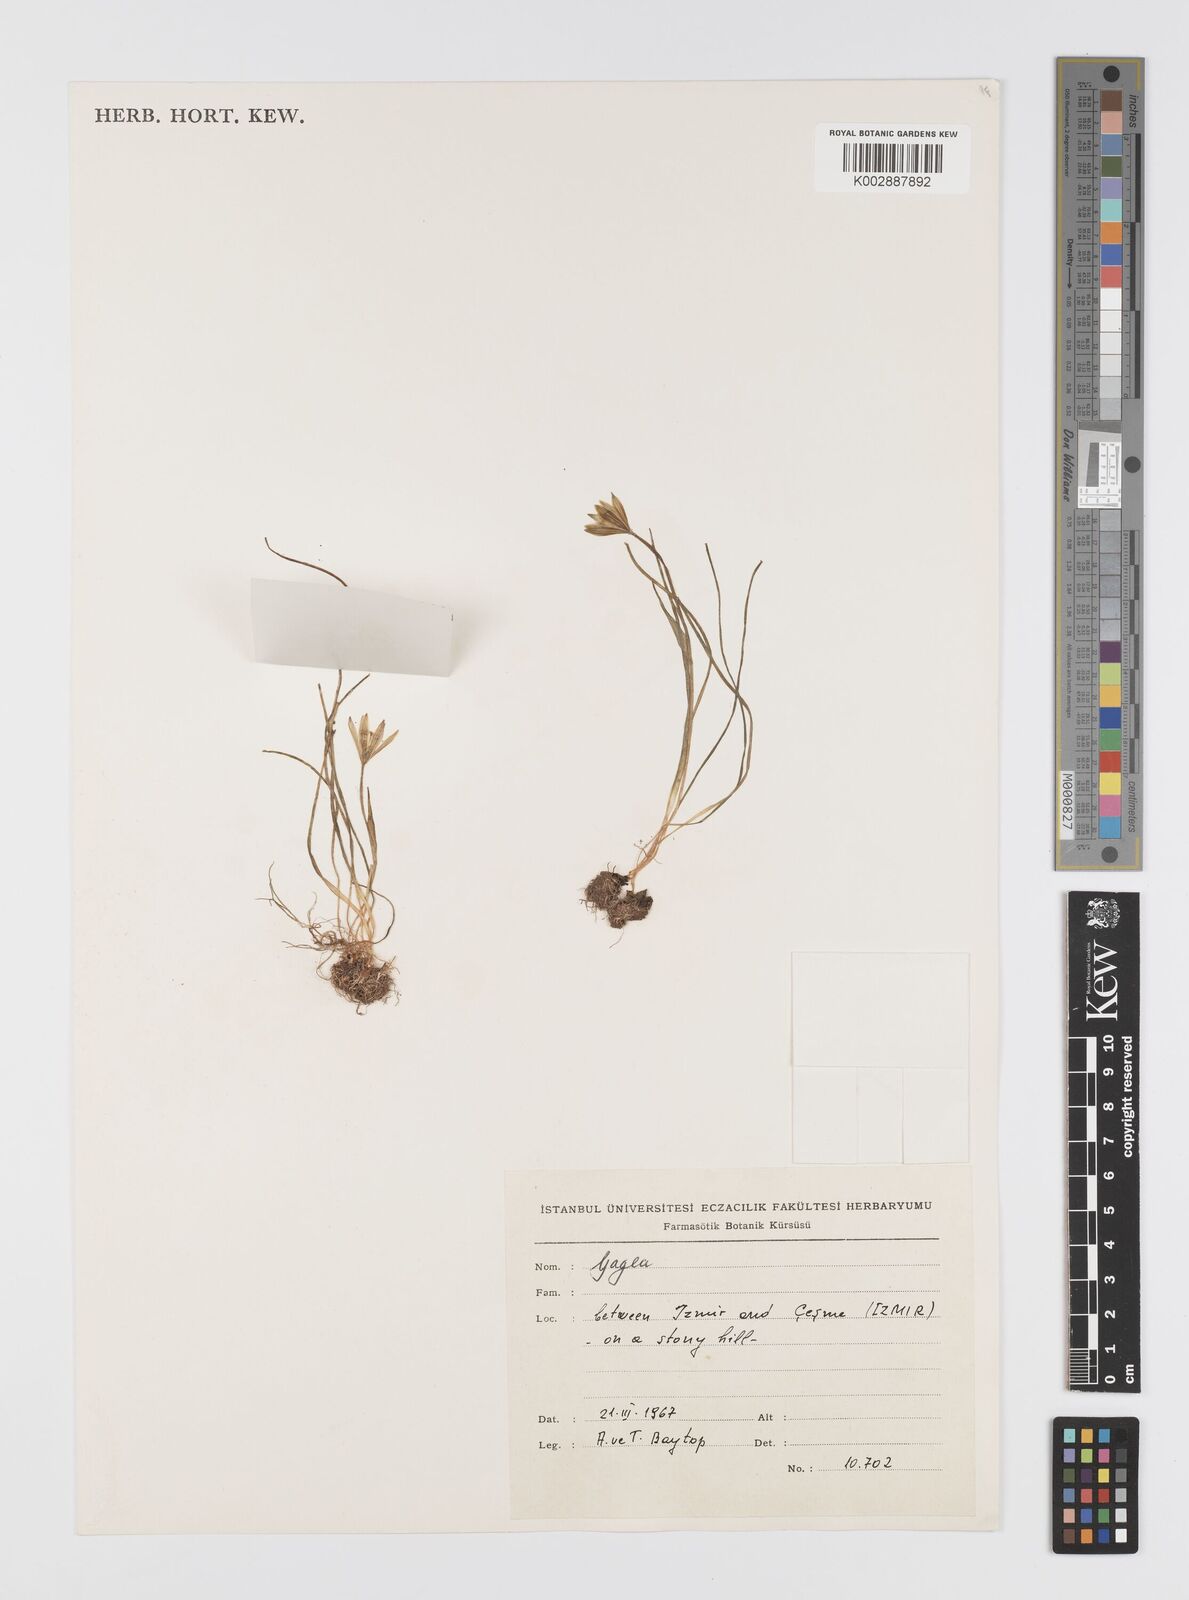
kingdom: Plantae
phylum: Tracheophyta
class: Liliopsida
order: Liliales
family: Liliaceae
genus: Gagea
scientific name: Gagea peduncularis
